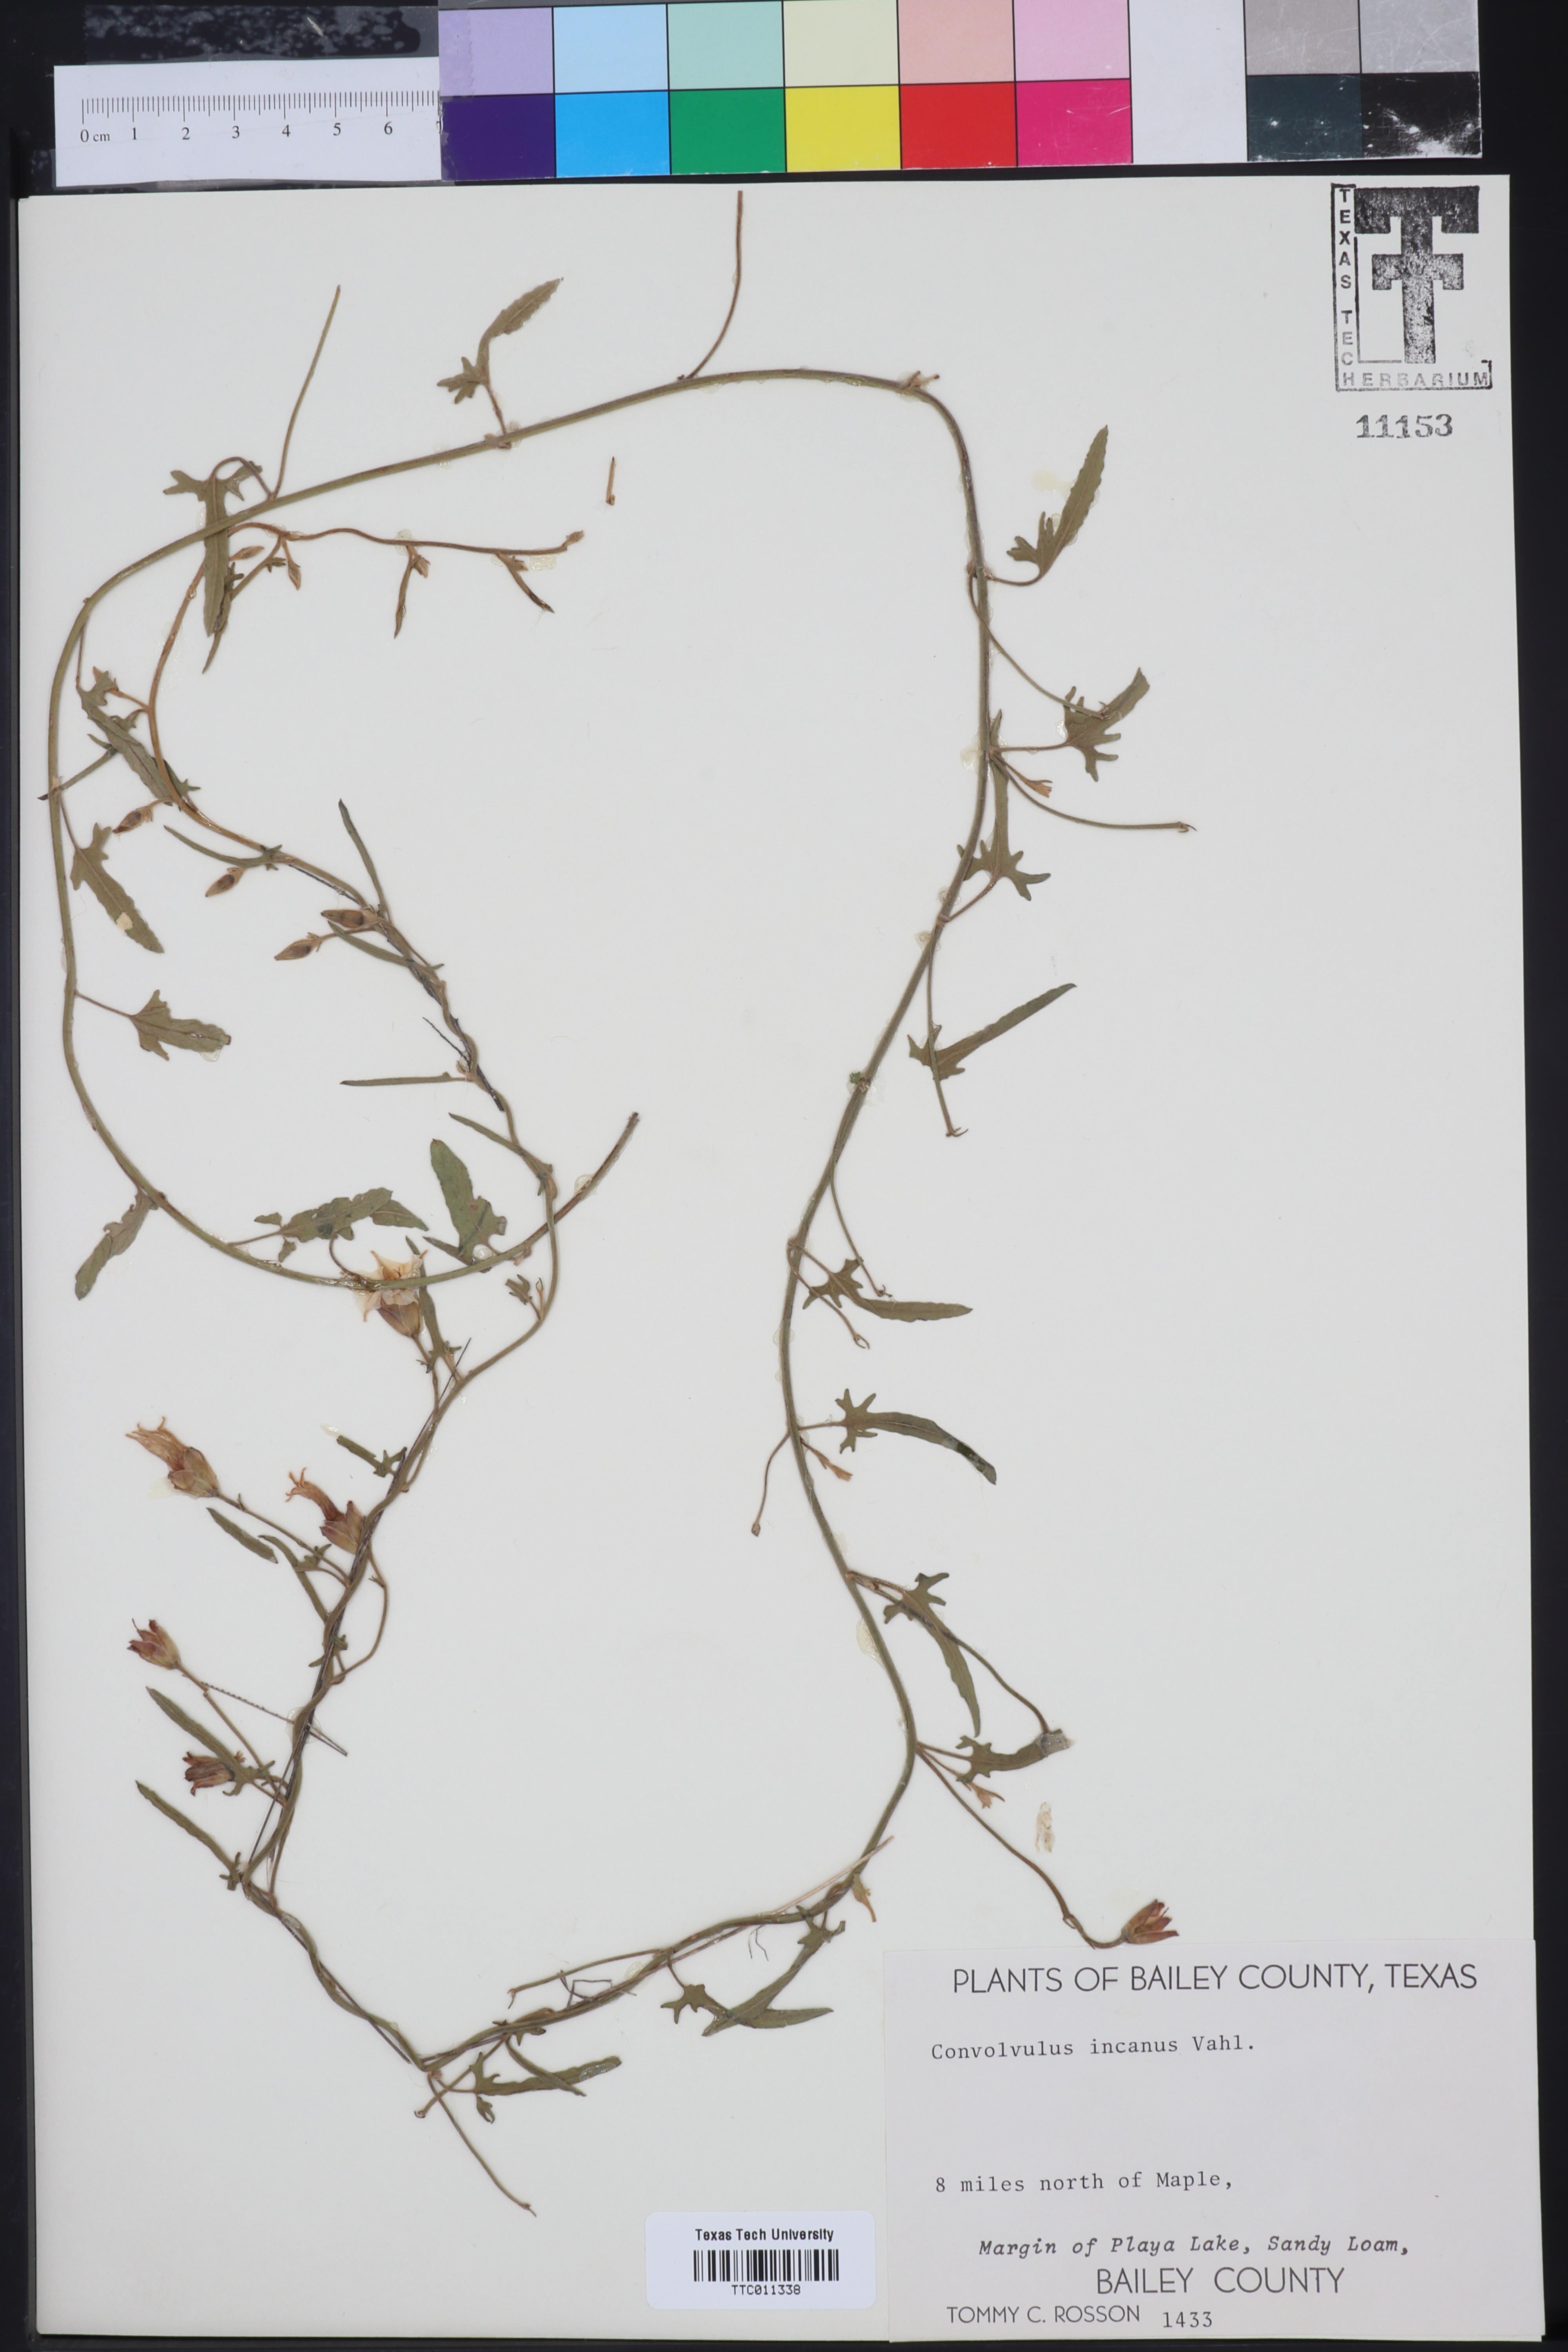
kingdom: Plantae
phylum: Tracheophyta
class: Magnoliopsida
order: Solanales
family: Convolvulaceae
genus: Convolvulus
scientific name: Convolvulus hermanniae
